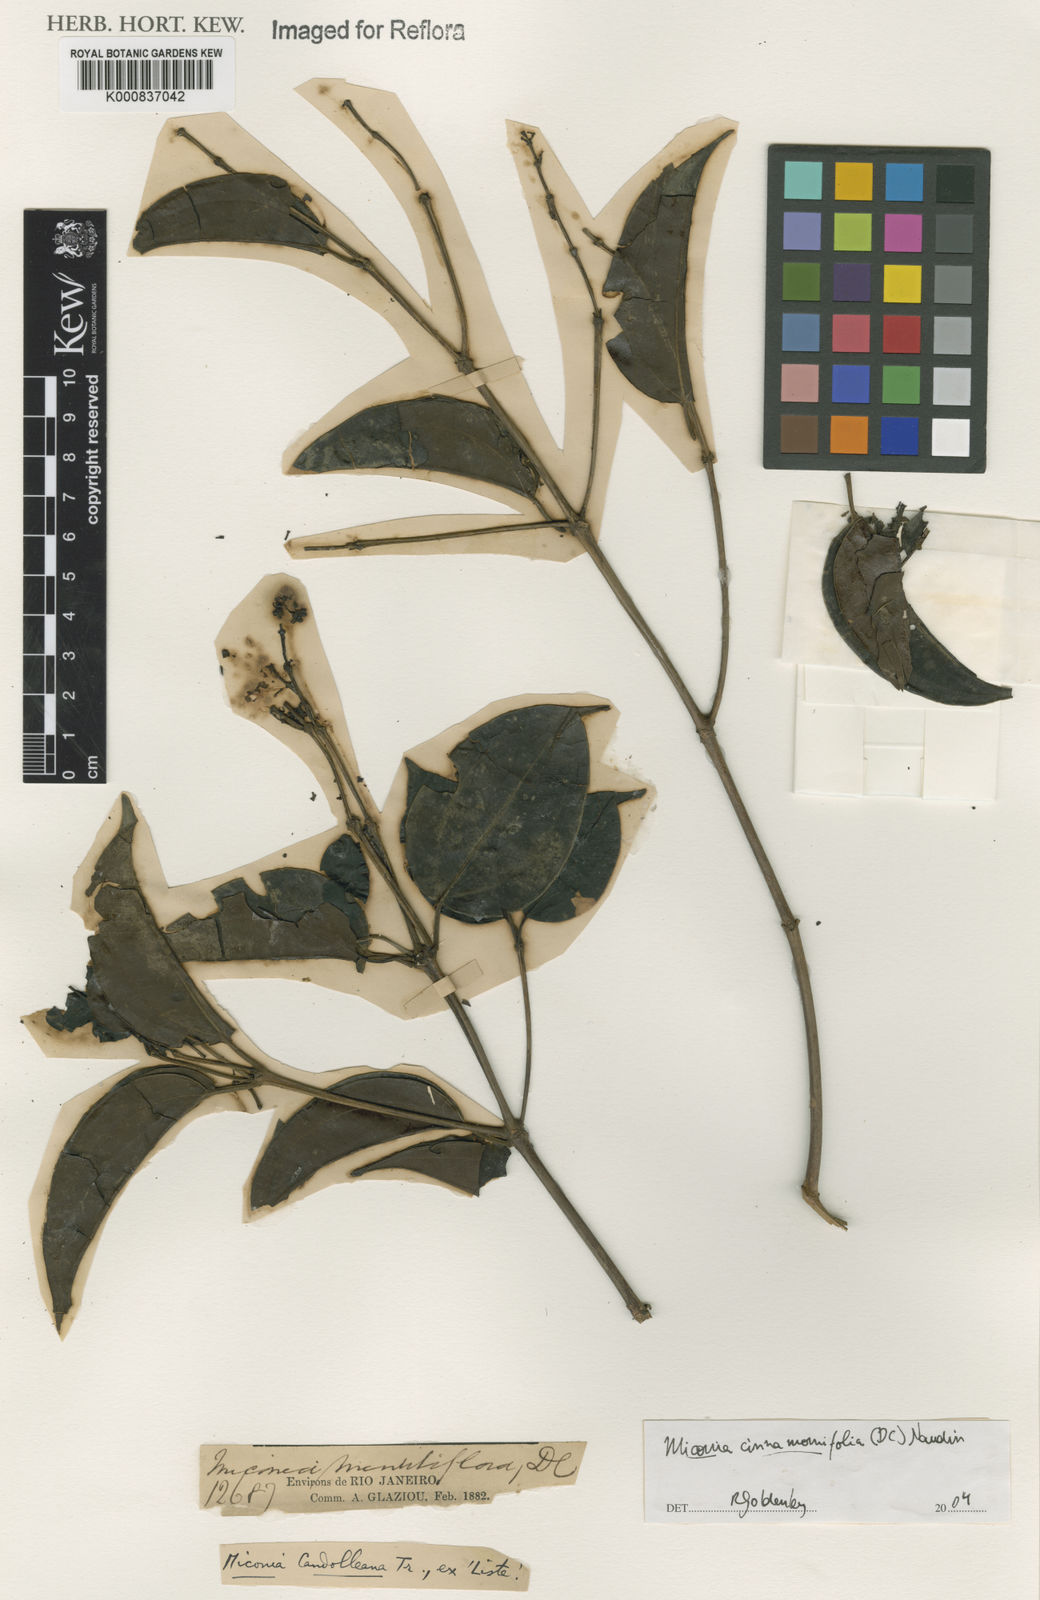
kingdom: Plantae
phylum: Tracheophyta
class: Magnoliopsida
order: Myrtales
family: Melastomataceae
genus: Miconia
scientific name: Miconia cinnamomifolia
